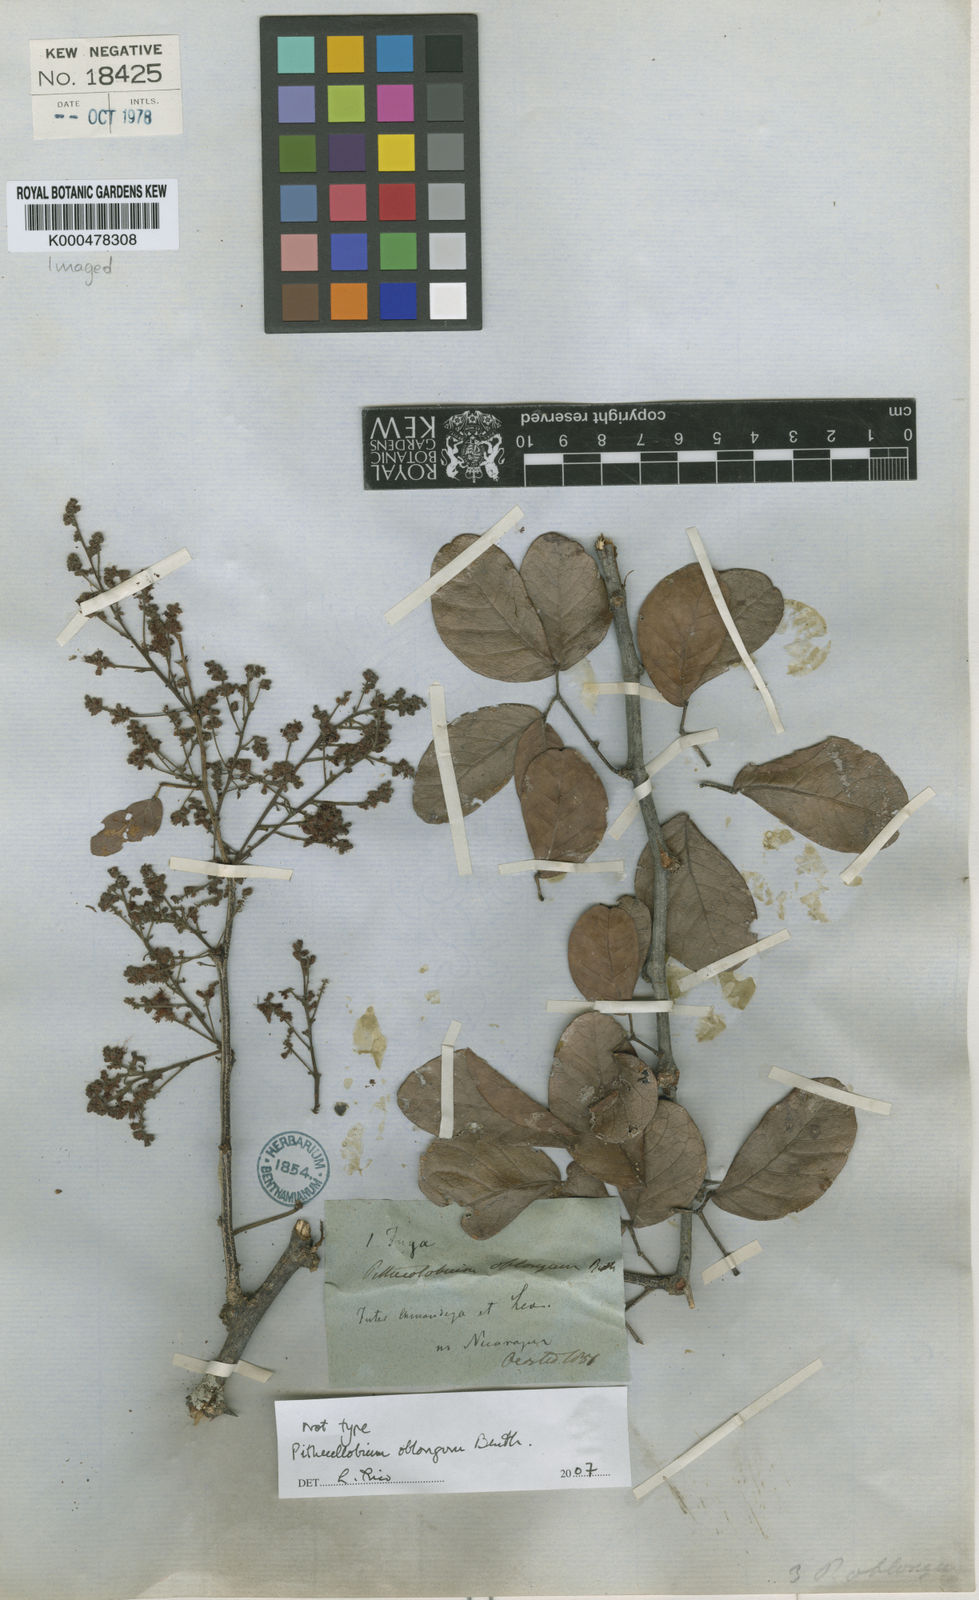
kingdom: Plantae
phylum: Tracheophyta
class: Magnoliopsida
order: Fabales
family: Fabaceae
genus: Pithecellobium
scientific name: Pithecellobium oblongum
